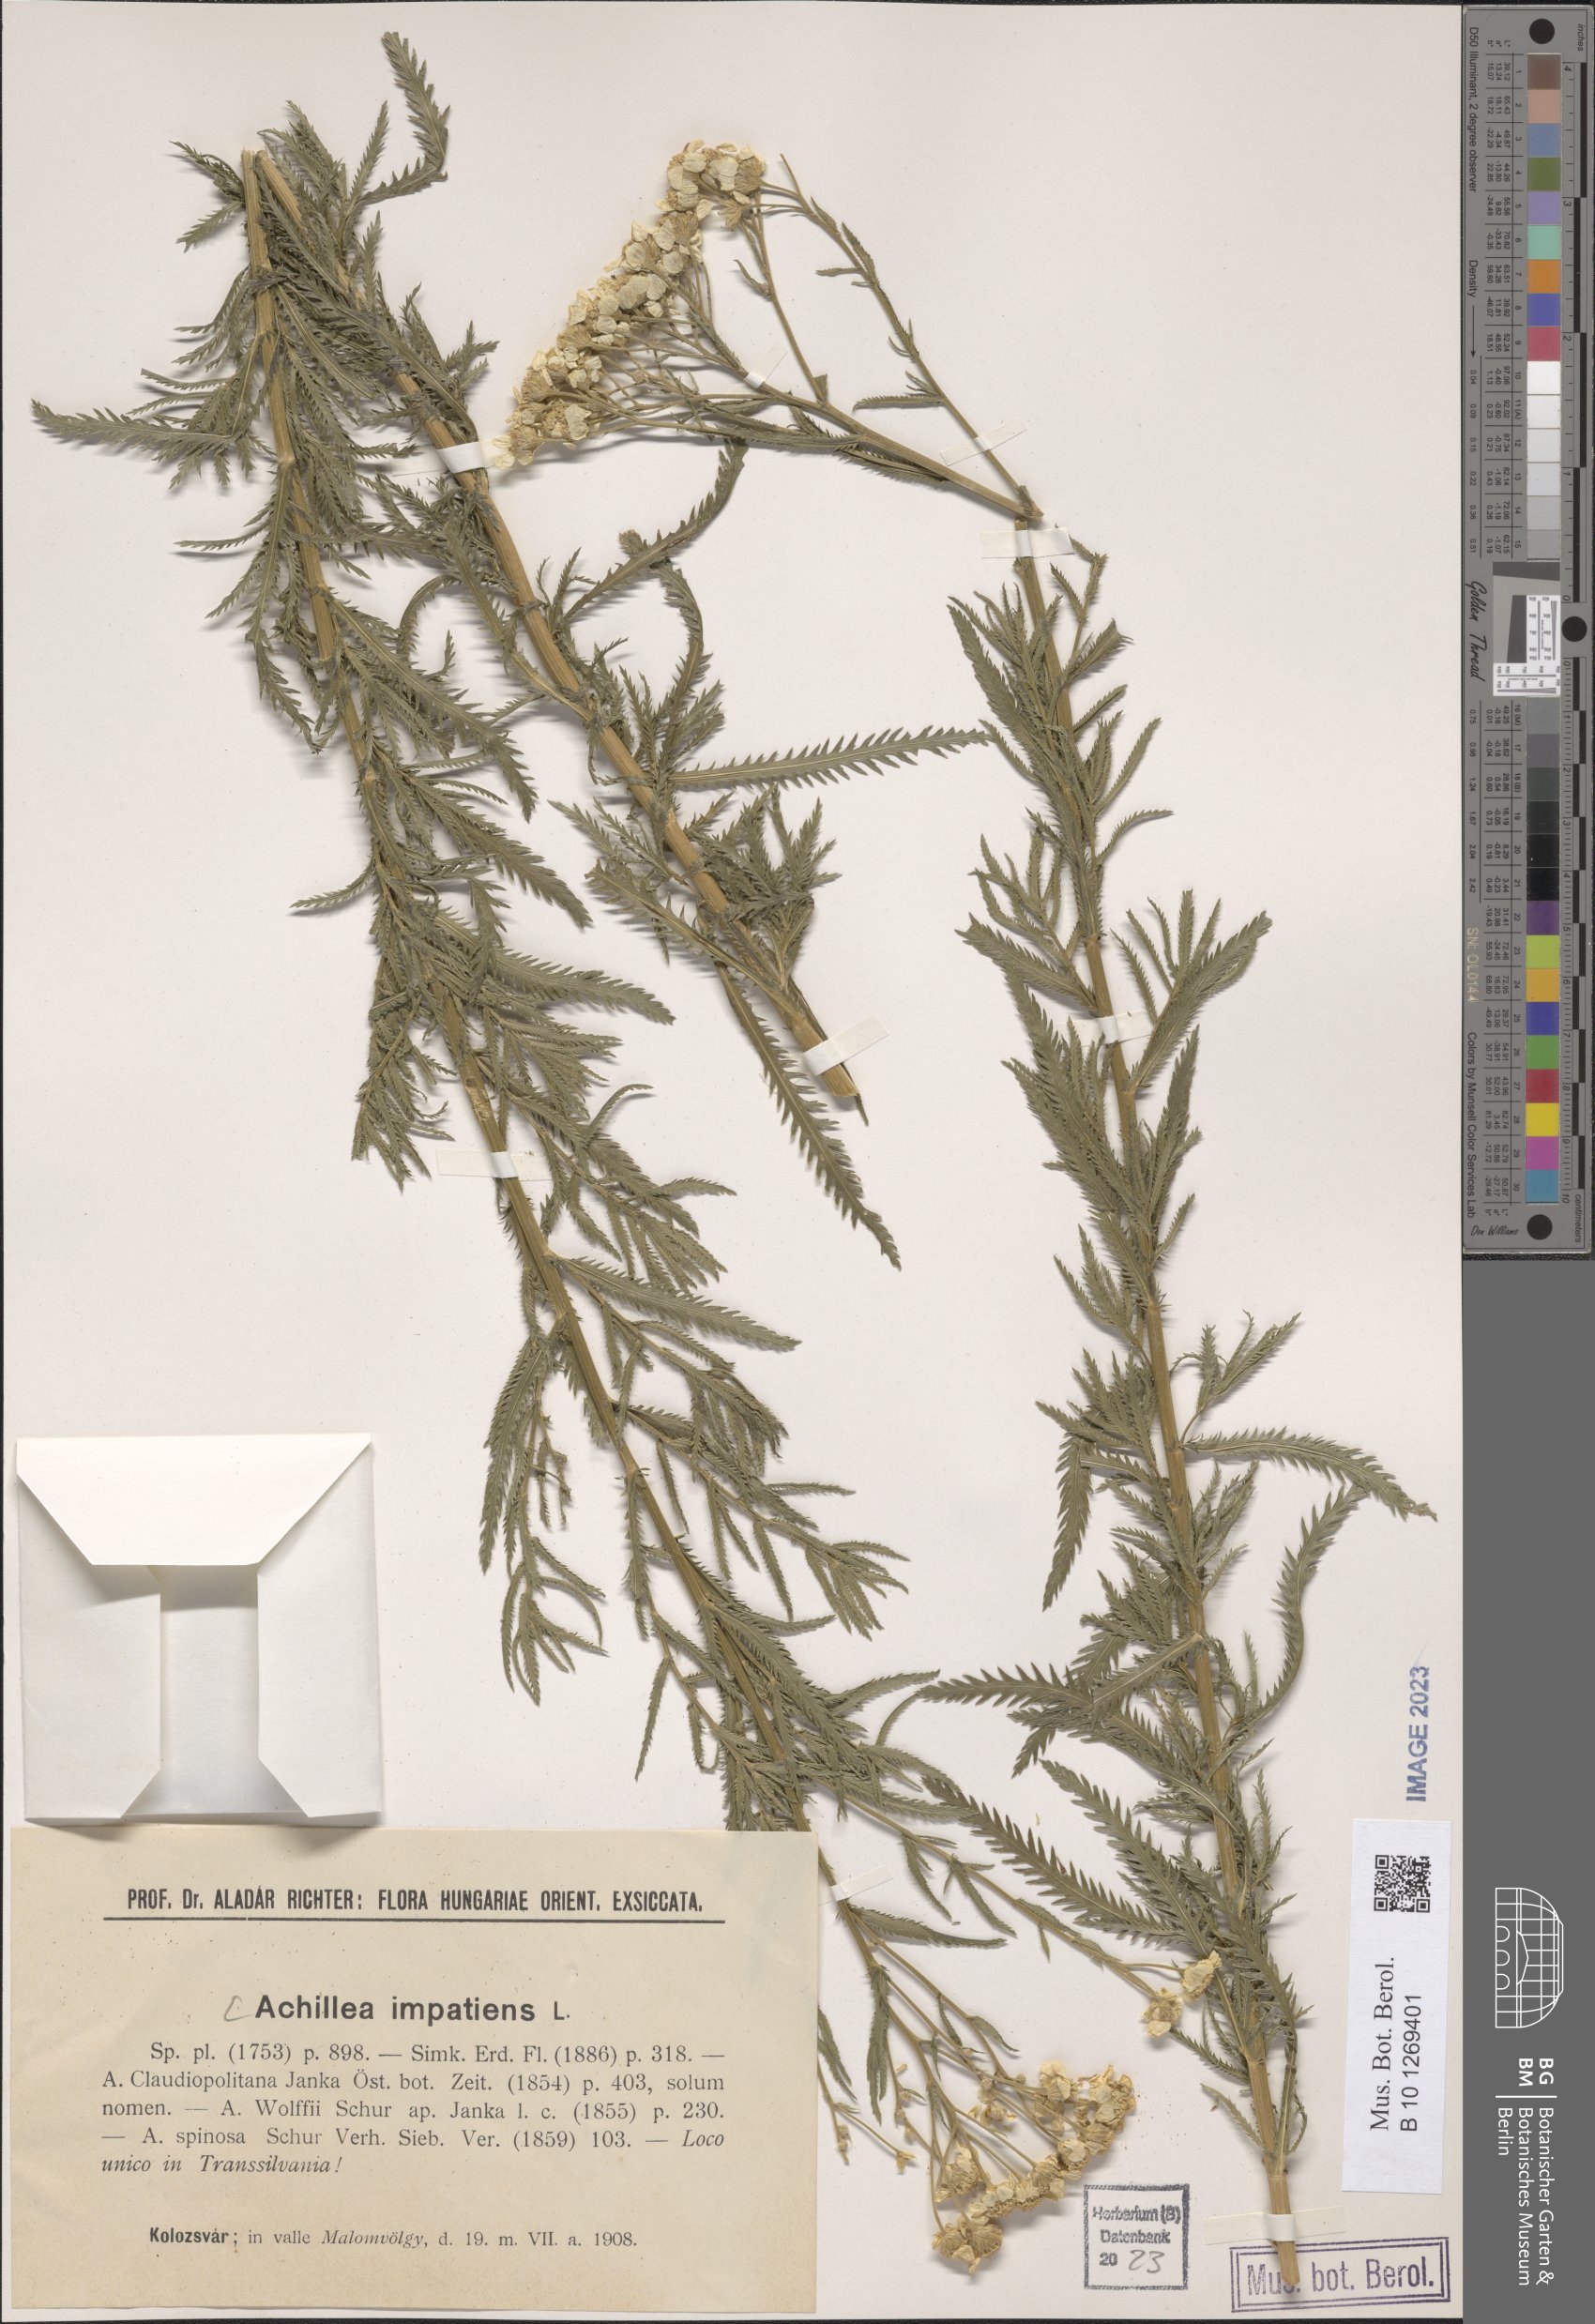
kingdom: Plantae
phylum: Tracheophyta
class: Magnoliopsida
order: Asterales
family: Asteraceae
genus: Achillea
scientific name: Achillea impatiens
